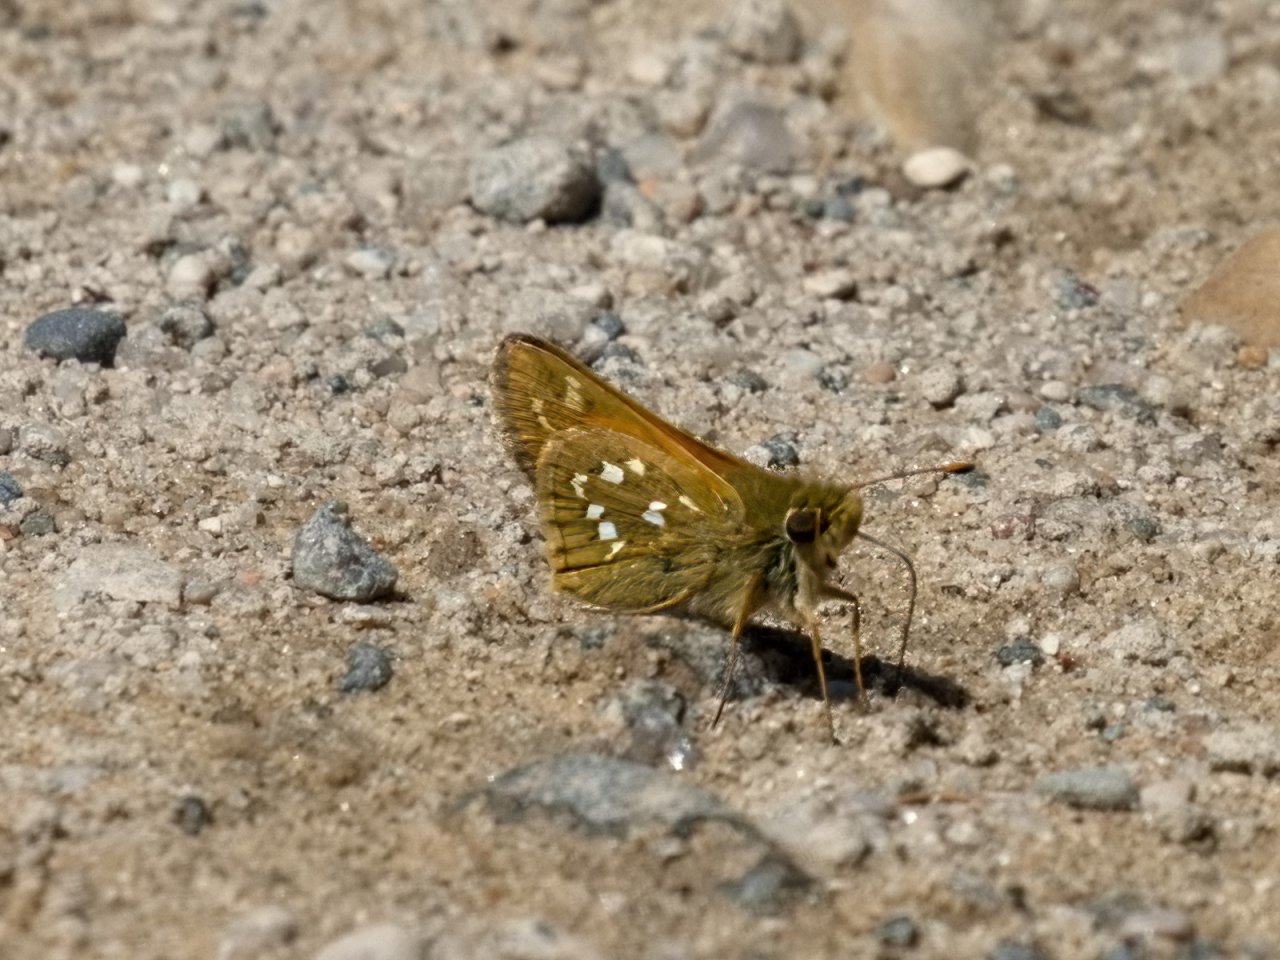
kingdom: Animalia
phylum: Arthropoda
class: Insecta
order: Lepidoptera
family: Hesperiidae
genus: Hesperia
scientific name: Hesperia comma
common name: Common Branded Skipper
